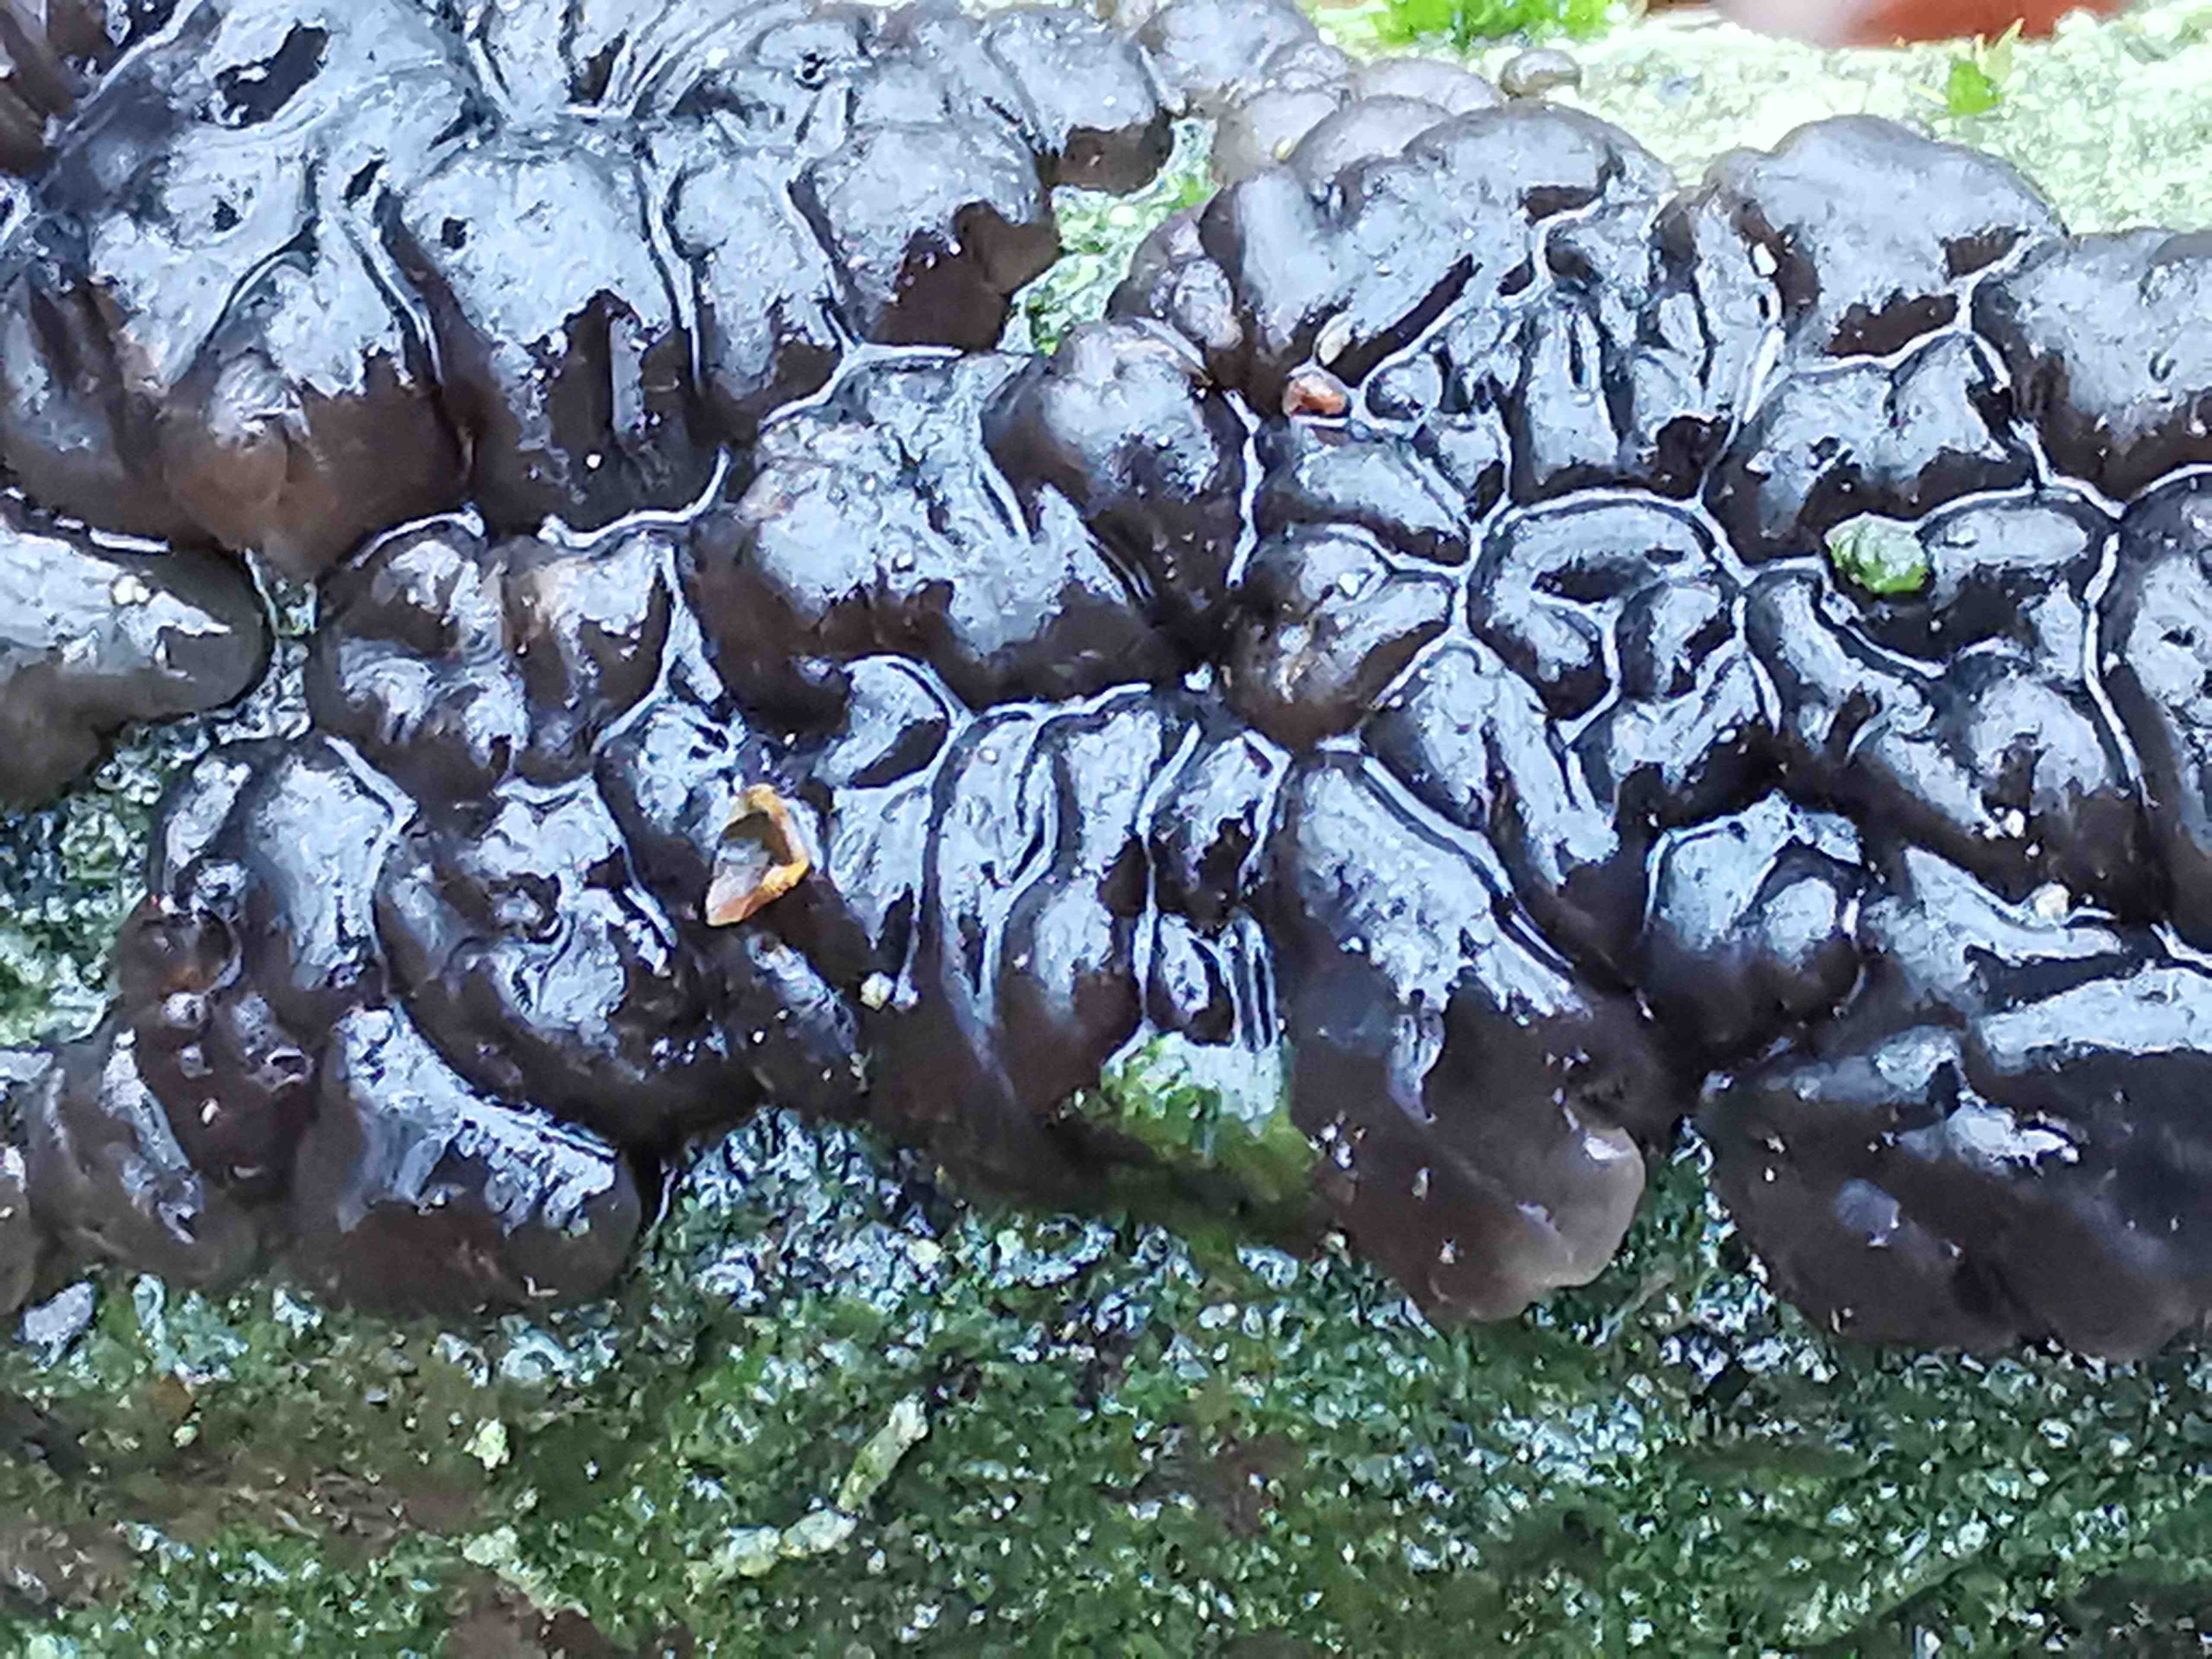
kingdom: Fungi
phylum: Basidiomycota
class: Agaricomycetes
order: Auriculariales
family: Auriculariaceae
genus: Exidia
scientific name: Exidia nigricans
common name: almindelig bævretop
